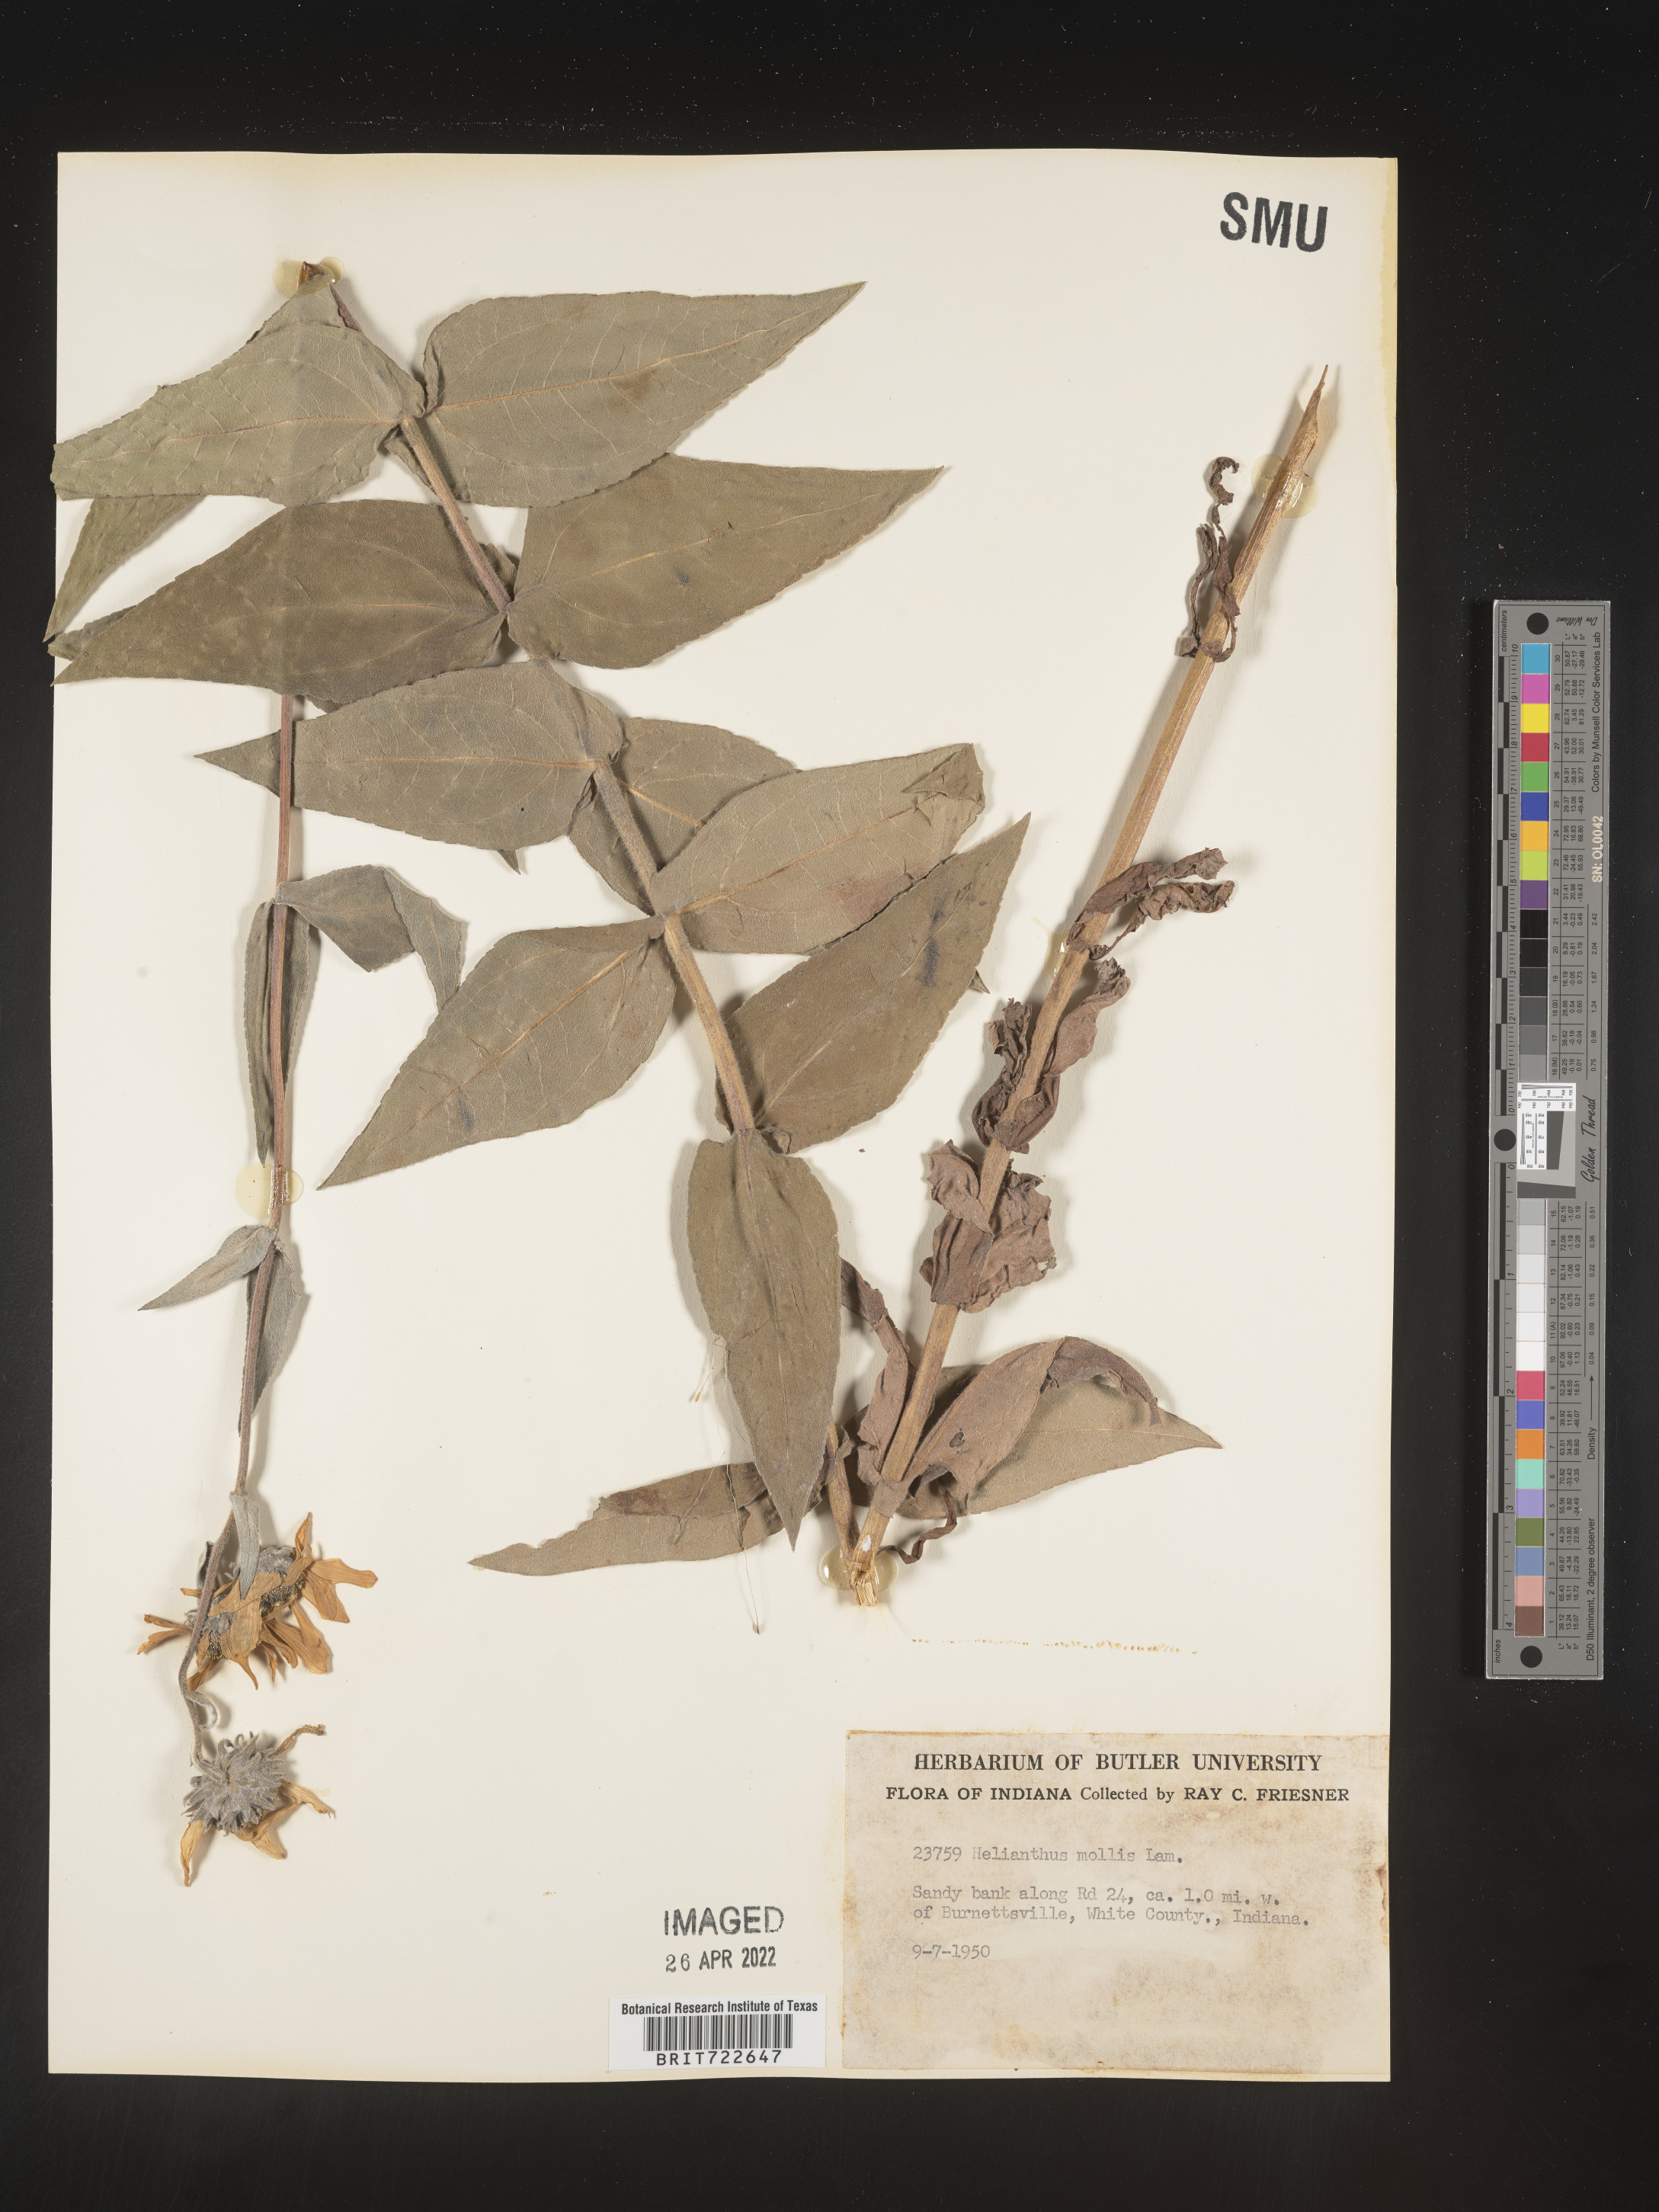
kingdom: Plantae
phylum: Tracheophyta
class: Magnoliopsida
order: Asterales
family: Asteraceae
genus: Helianthus
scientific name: Helianthus mollis
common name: Ashy sunflower
